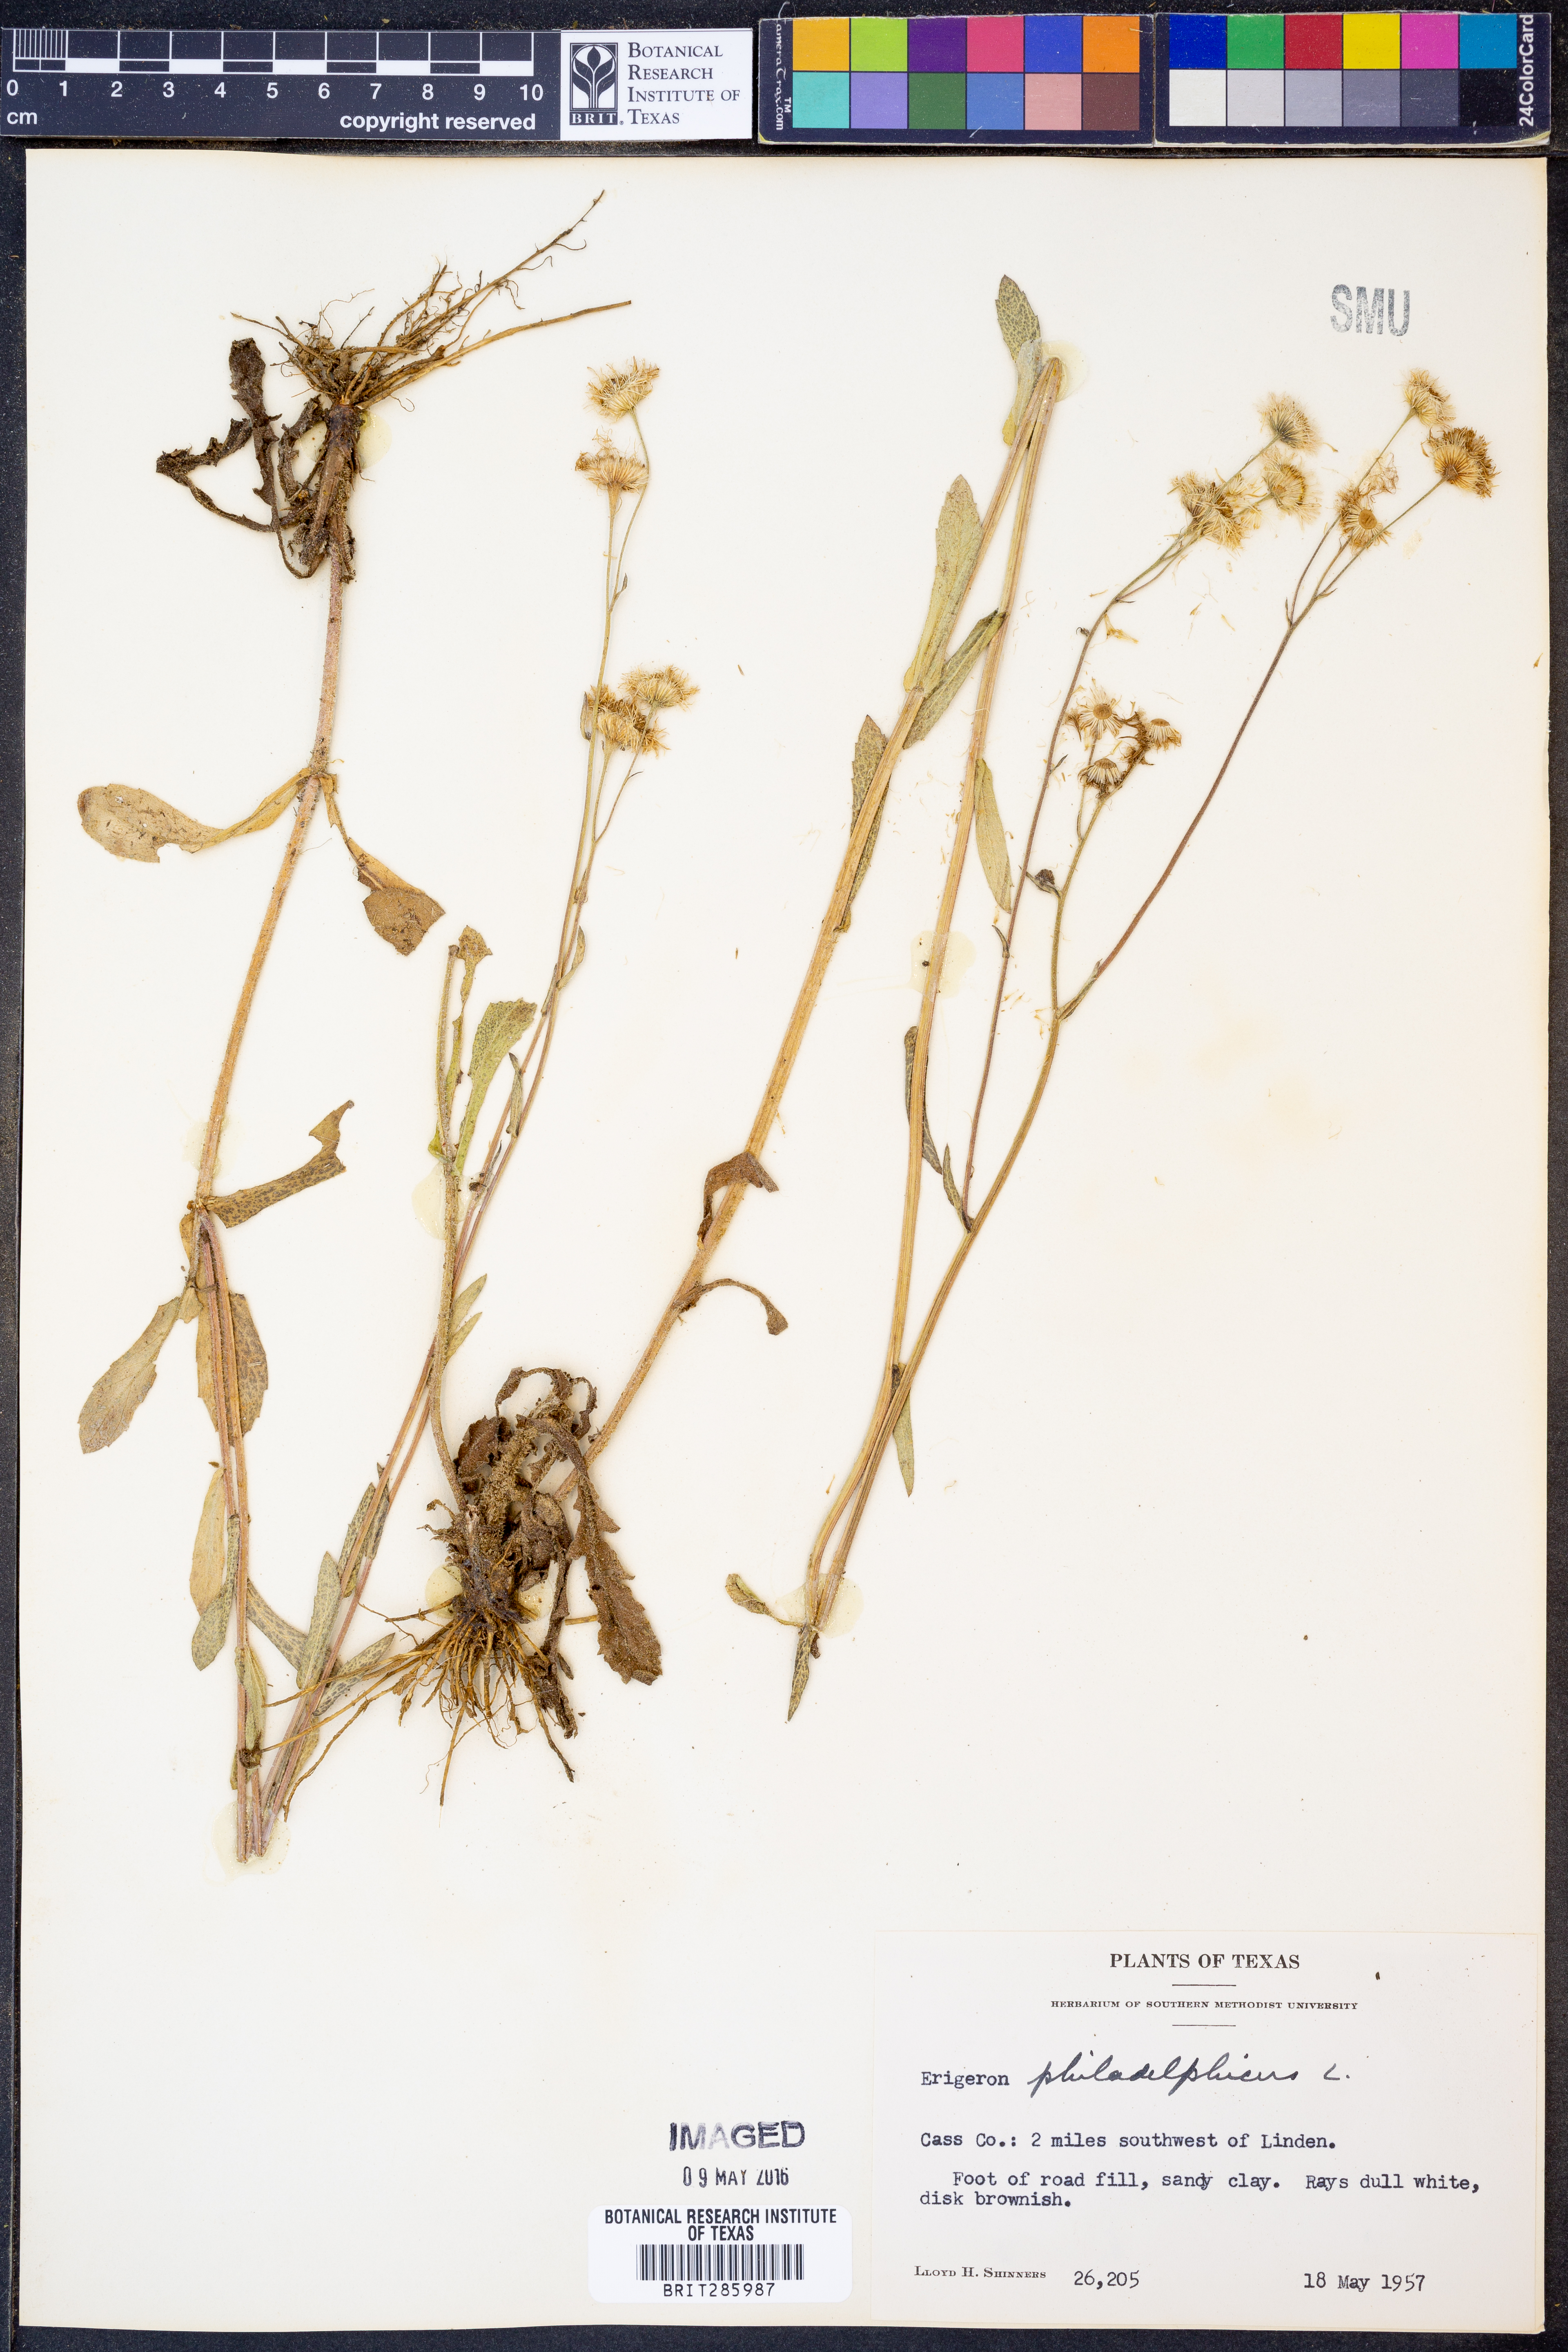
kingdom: Plantae
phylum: Tracheophyta
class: Magnoliopsida
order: Asterales
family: Asteraceae
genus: Erigeron
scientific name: Erigeron philadelphicus
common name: Robin's-plantain
